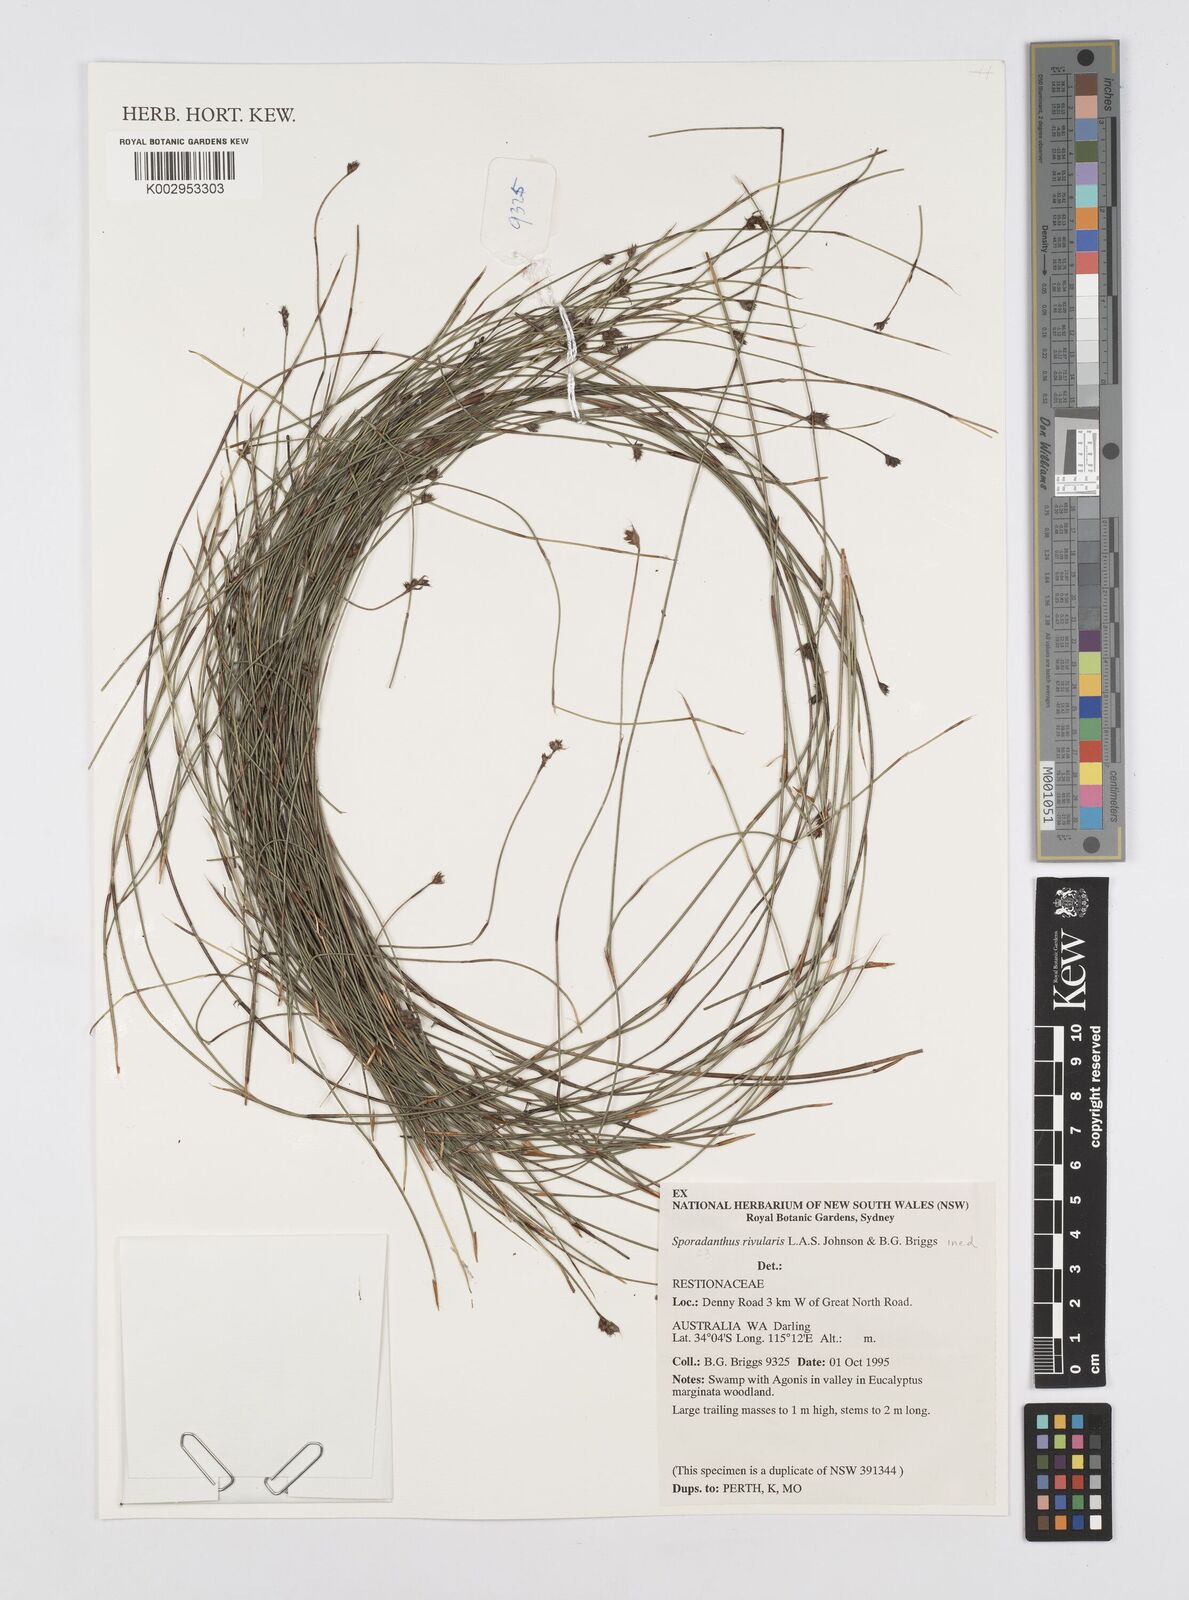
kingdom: Plantae
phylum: Tracheophyta
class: Liliopsida
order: Poales
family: Restionaceae
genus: Sporadanthus
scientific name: Sporadanthus rivularis
